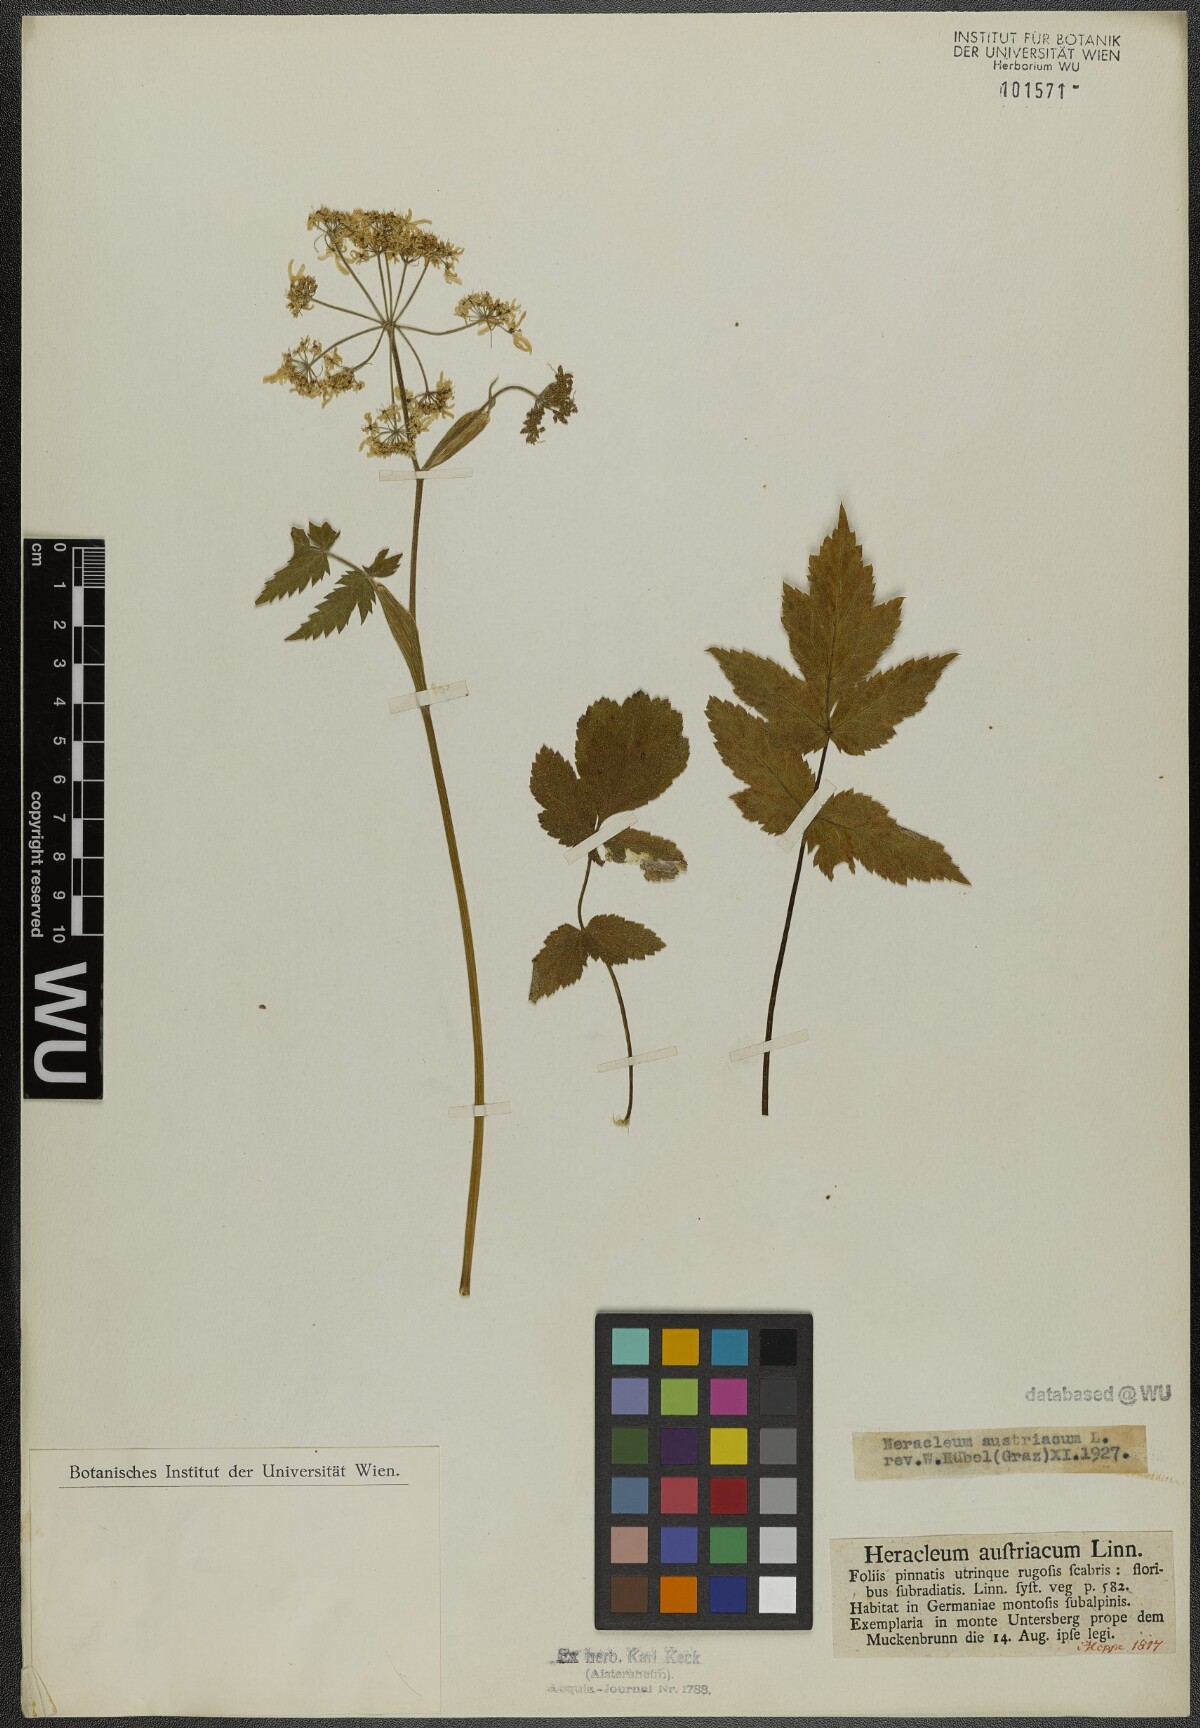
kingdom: Plantae
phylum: Tracheophyta
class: Magnoliopsida
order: Apiales
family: Apiaceae
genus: Heracleum
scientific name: Heracleum austriacum
